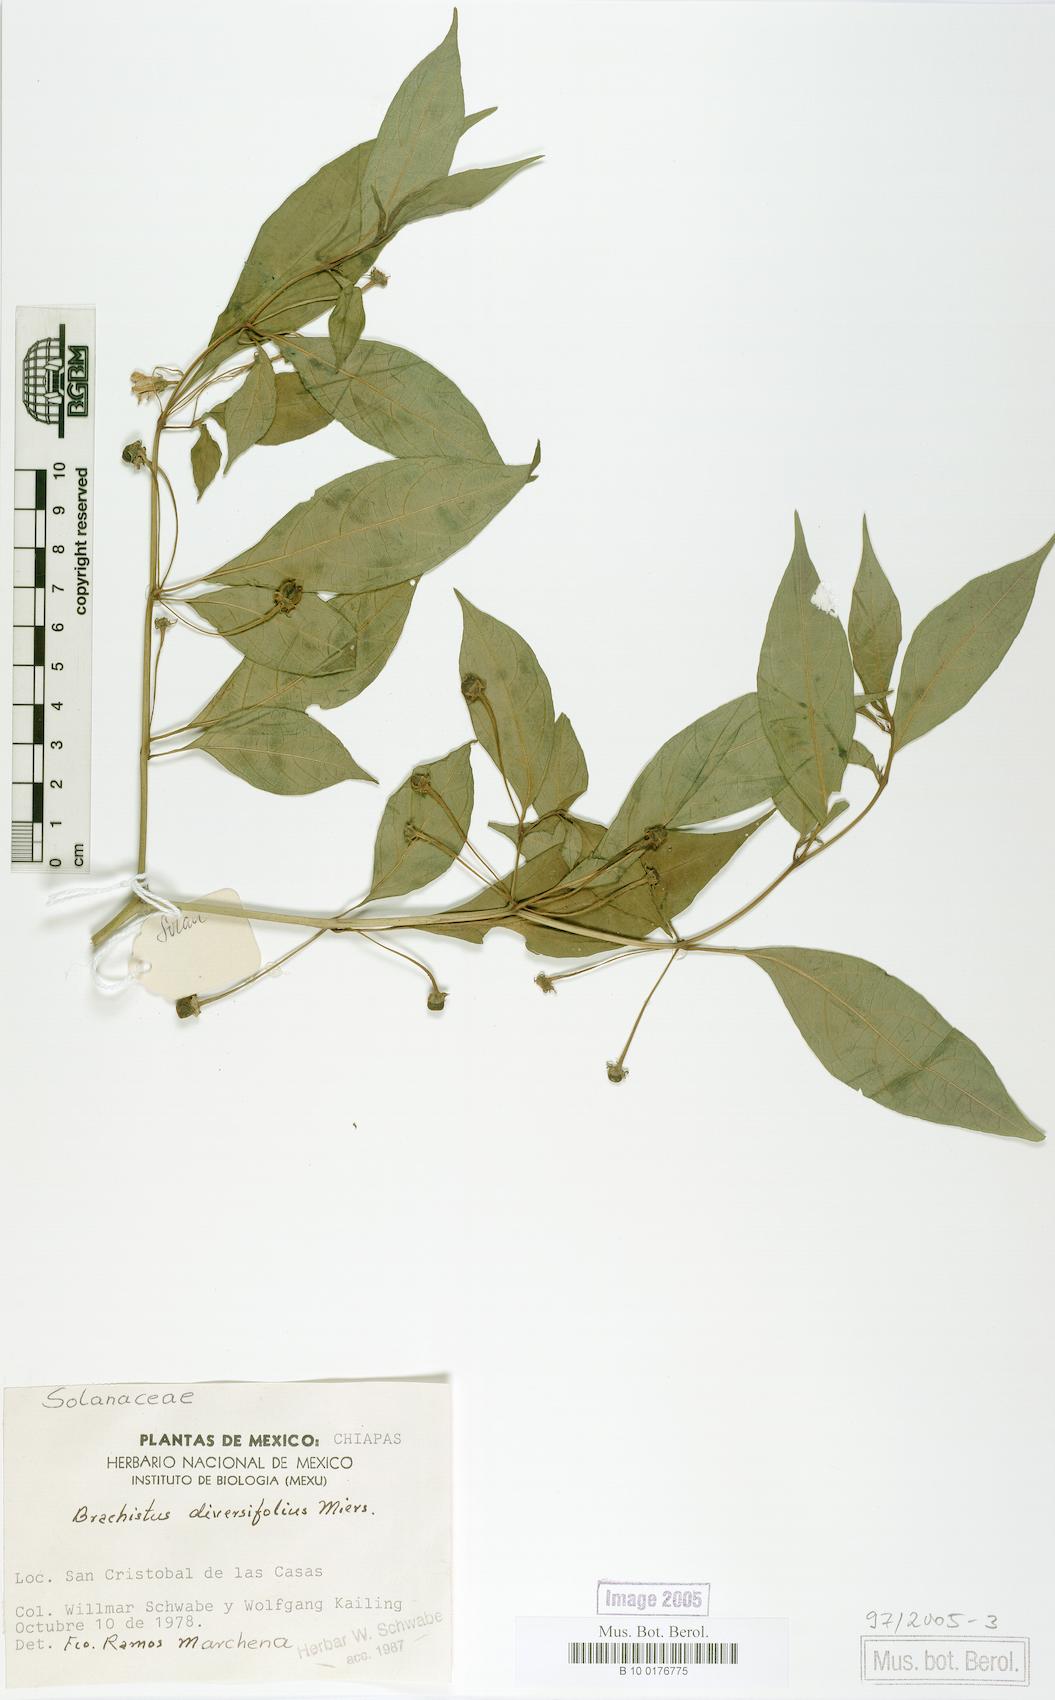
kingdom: Plantae
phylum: Tracheophyta
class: Magnoliopsida
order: Solanales
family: Solanaceae
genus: Capsicum
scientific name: Capsicum rhomboideum
